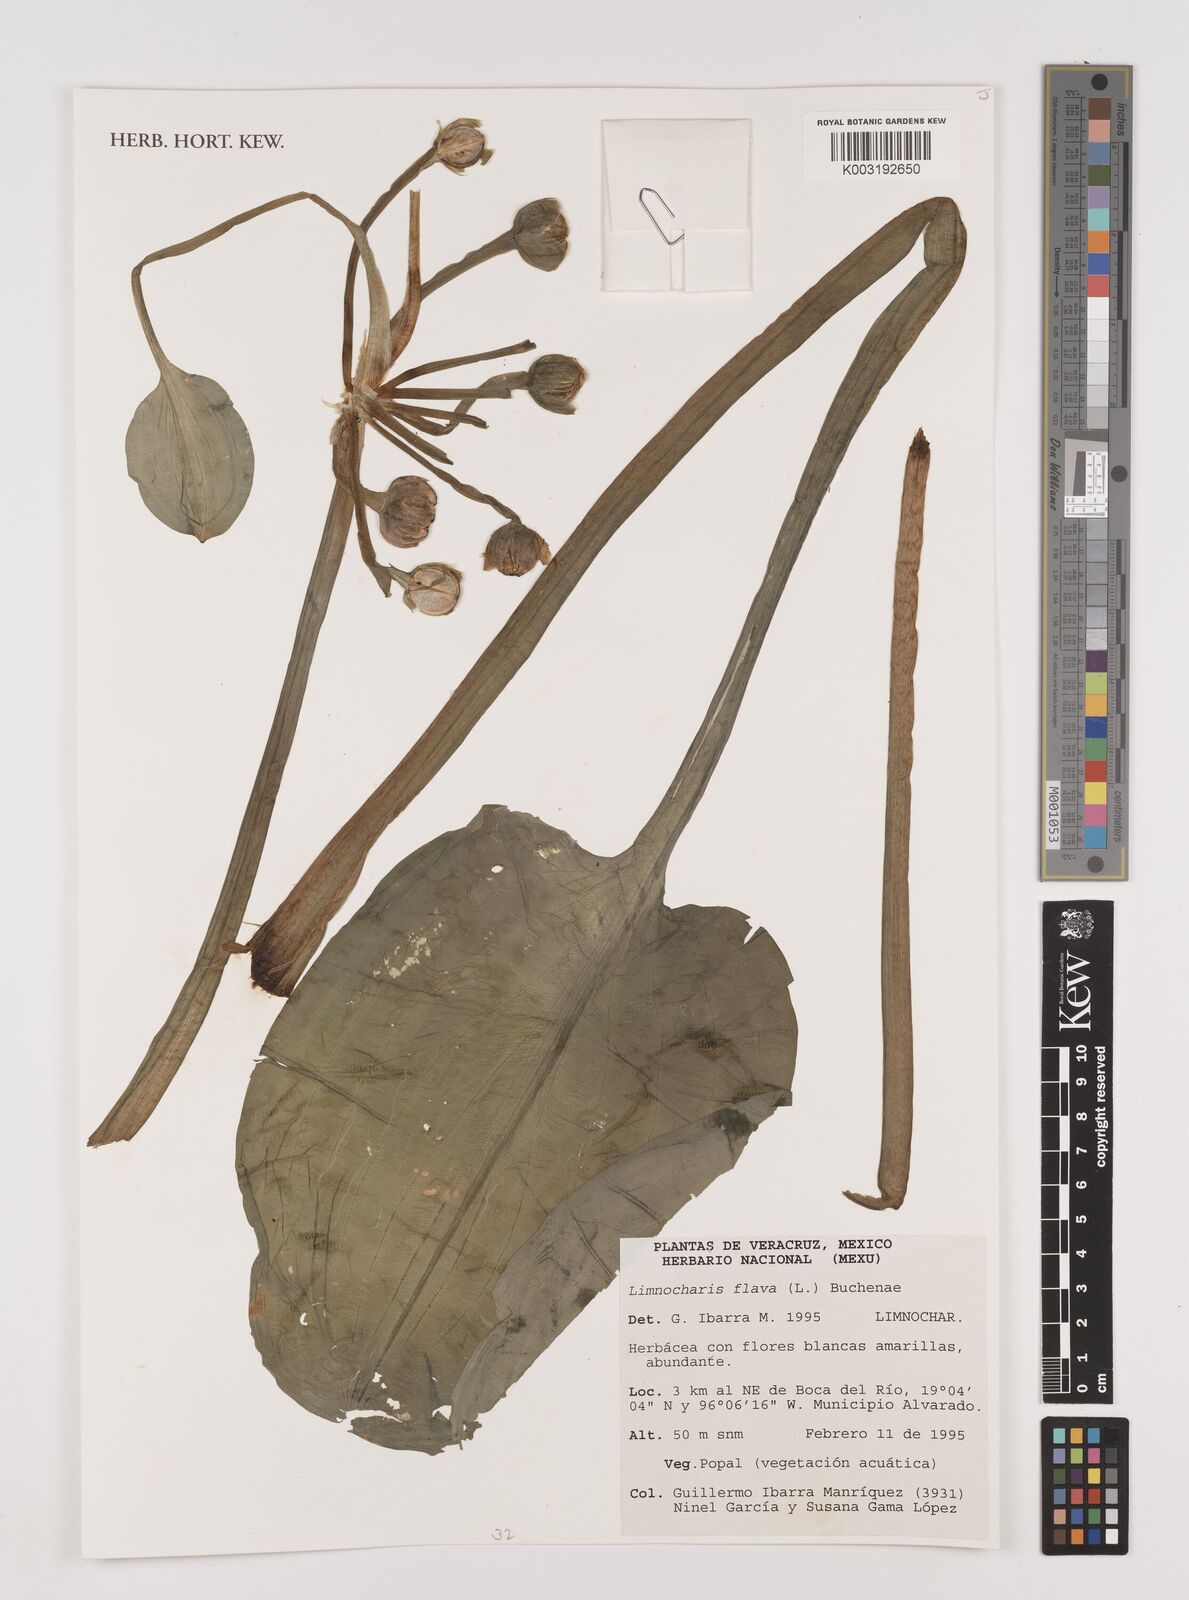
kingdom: Plantae
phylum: Tracheophyta
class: Liliopsida
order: Alismatales
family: Alismataceae
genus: Limnocharis
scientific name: Limnocharis flava
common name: Sawah-flower-rush
